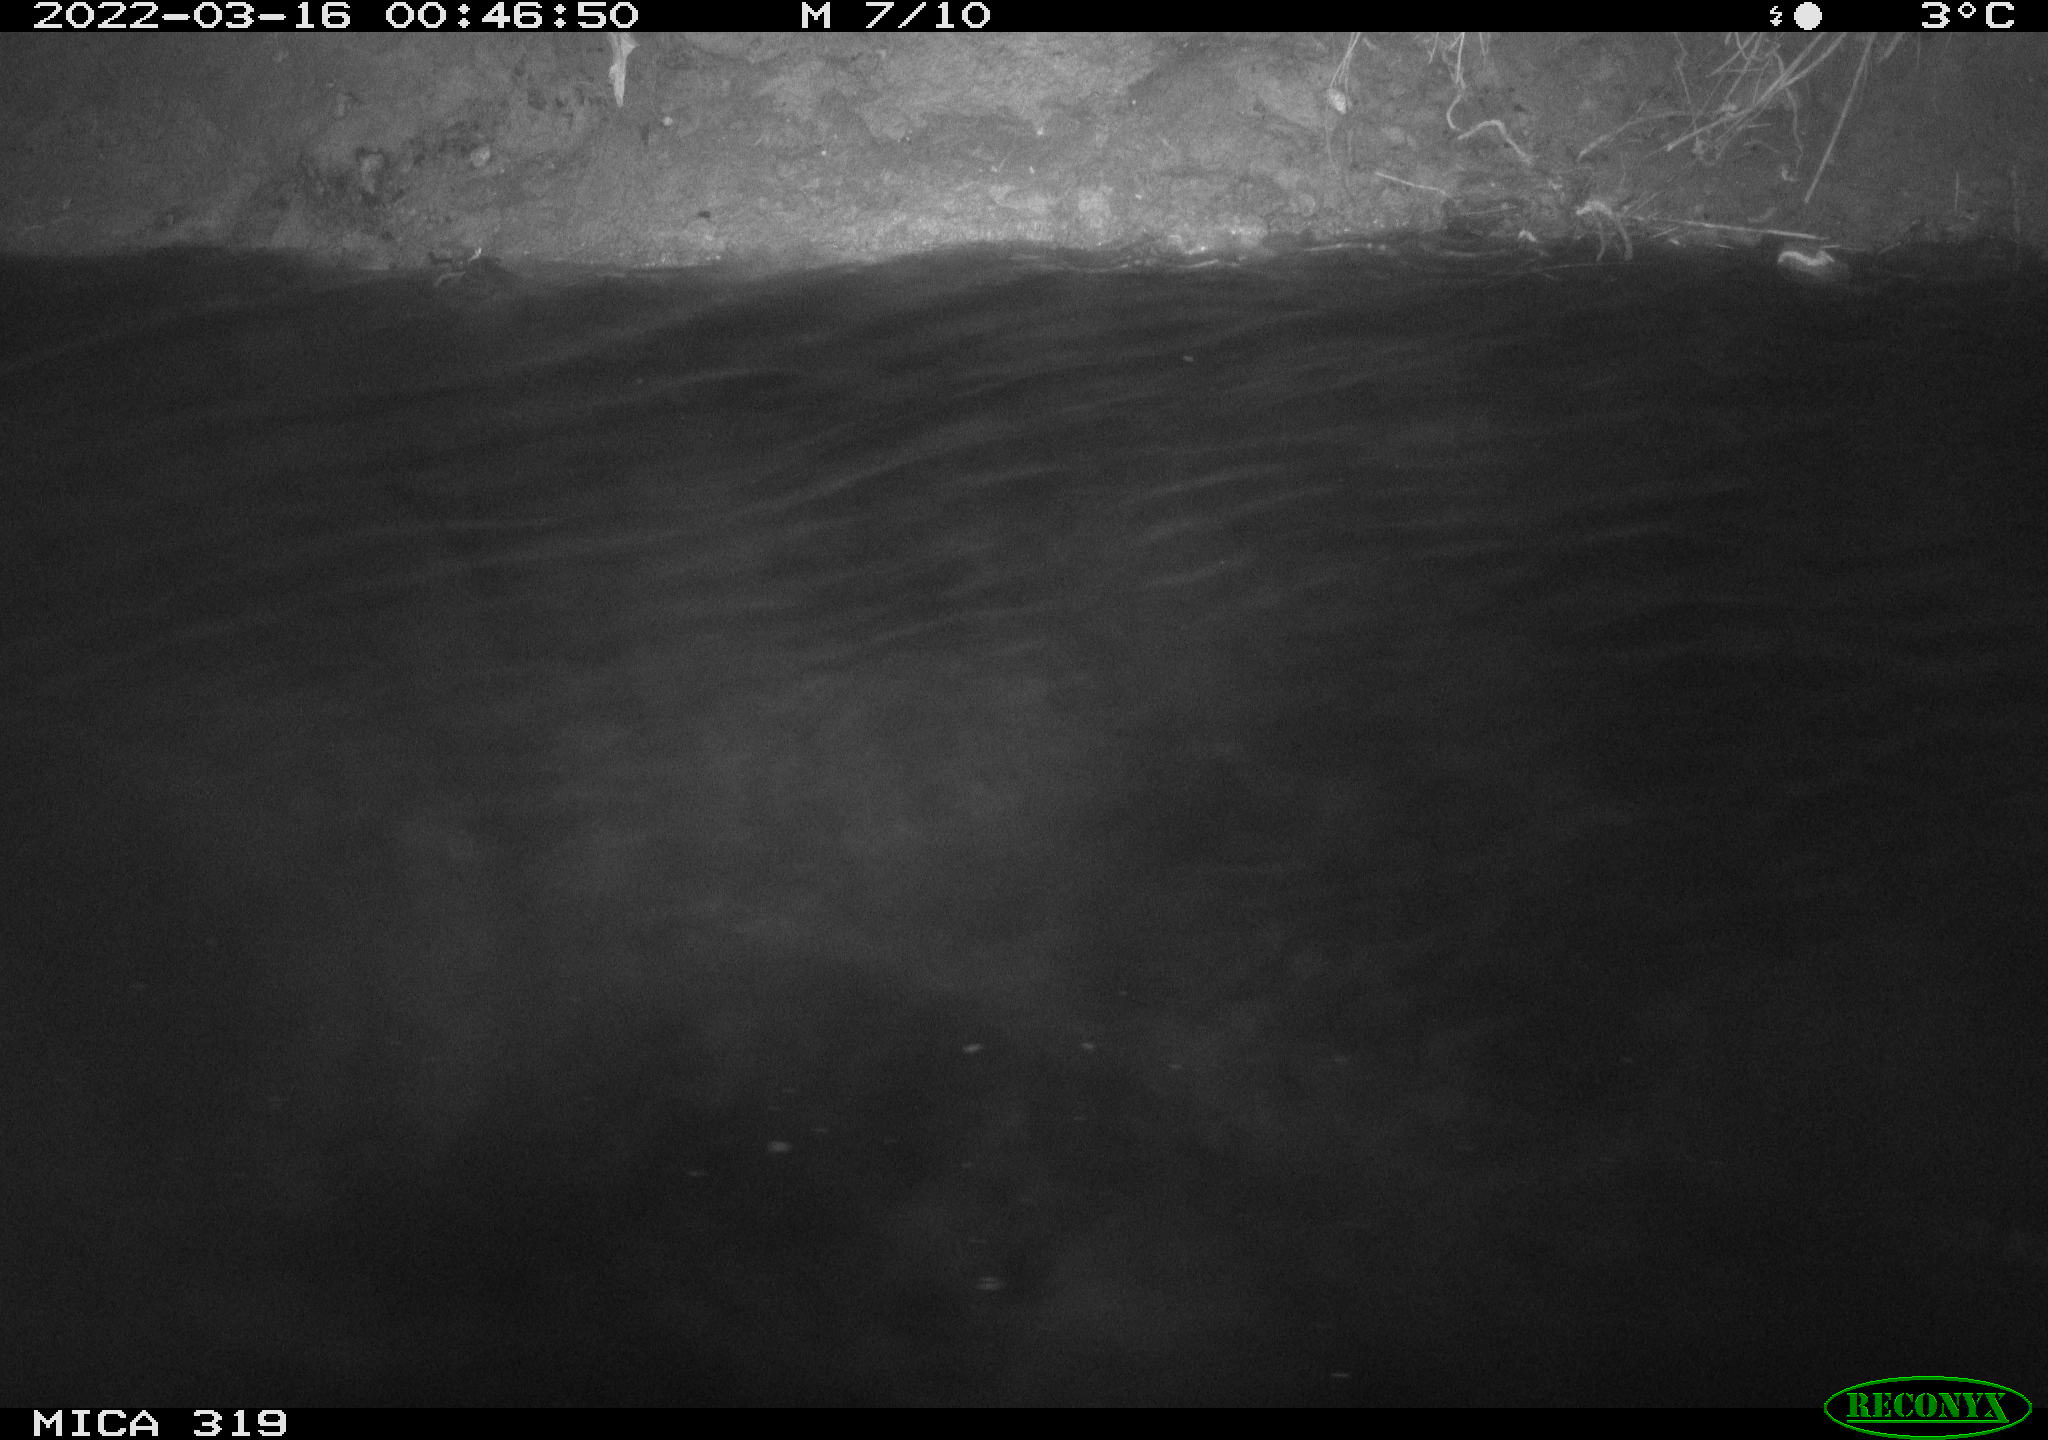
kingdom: Animalia
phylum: Chordata
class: Aves
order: Anseriformes
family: Anatidae
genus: Anas
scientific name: Anas platyrhynchos
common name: Mallard
